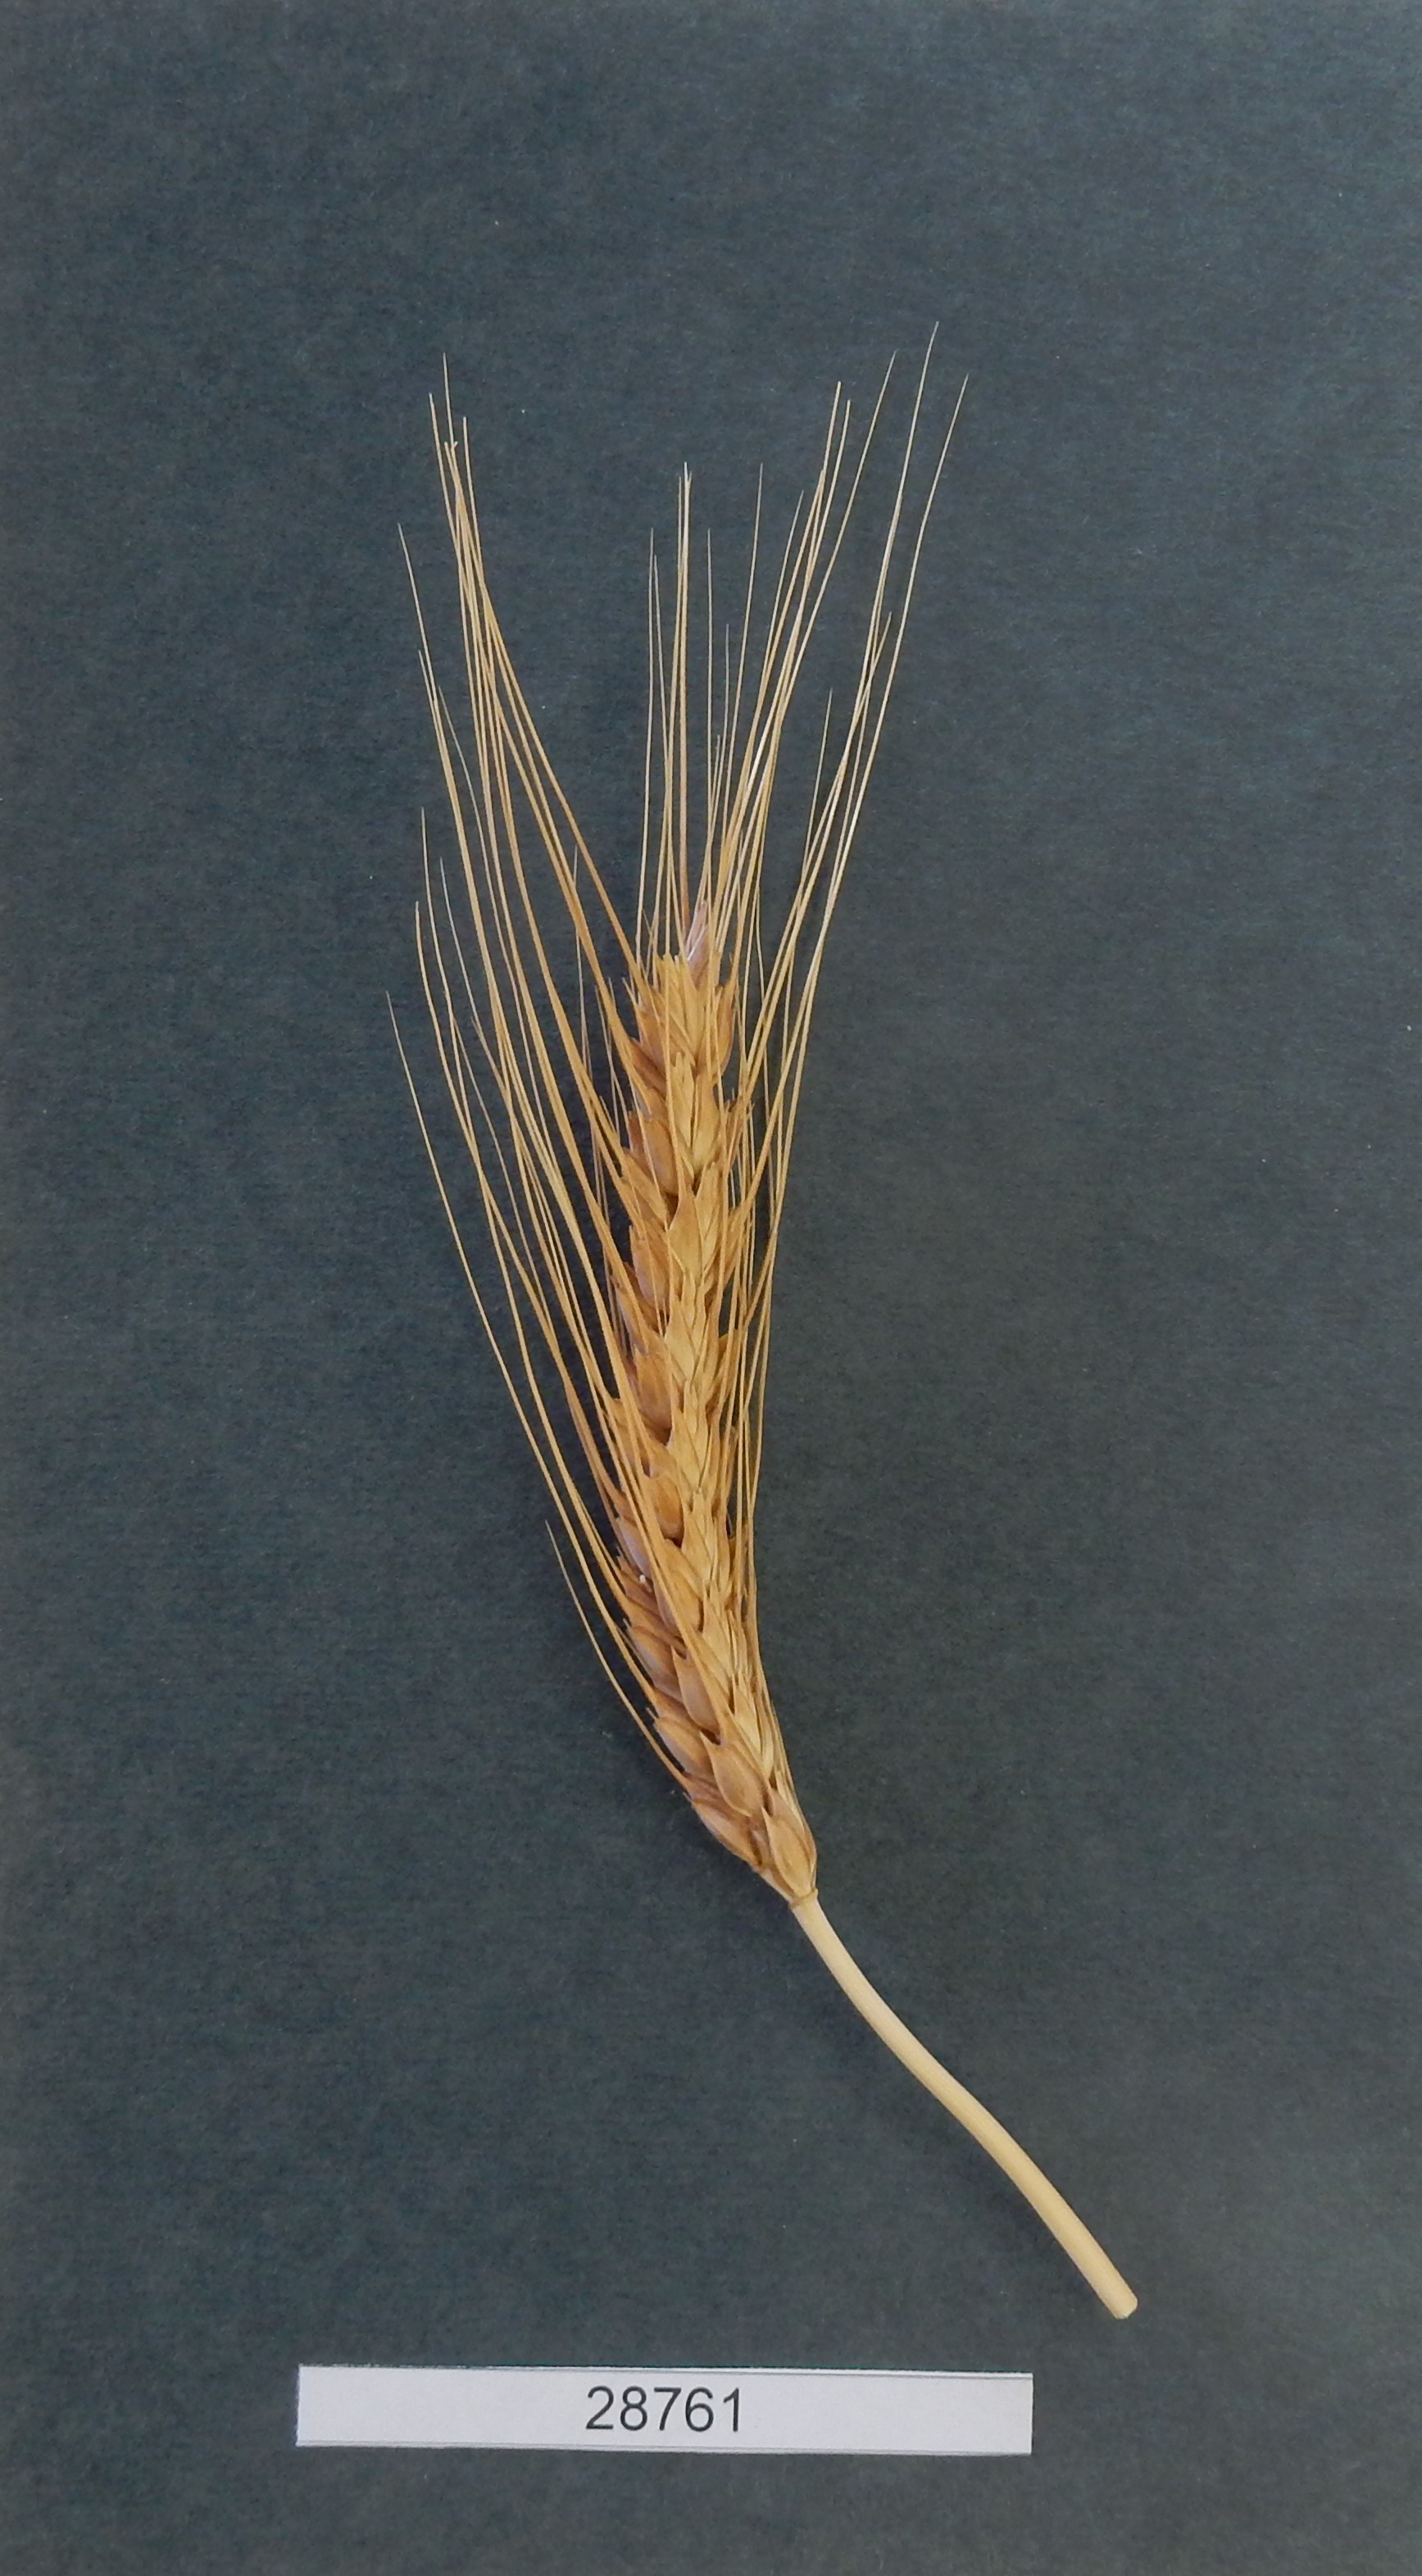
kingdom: Plantae
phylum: Tracheophyta
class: Liliopsida
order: Poales
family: Poaceae
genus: Triticum
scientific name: Triticum aestivum
